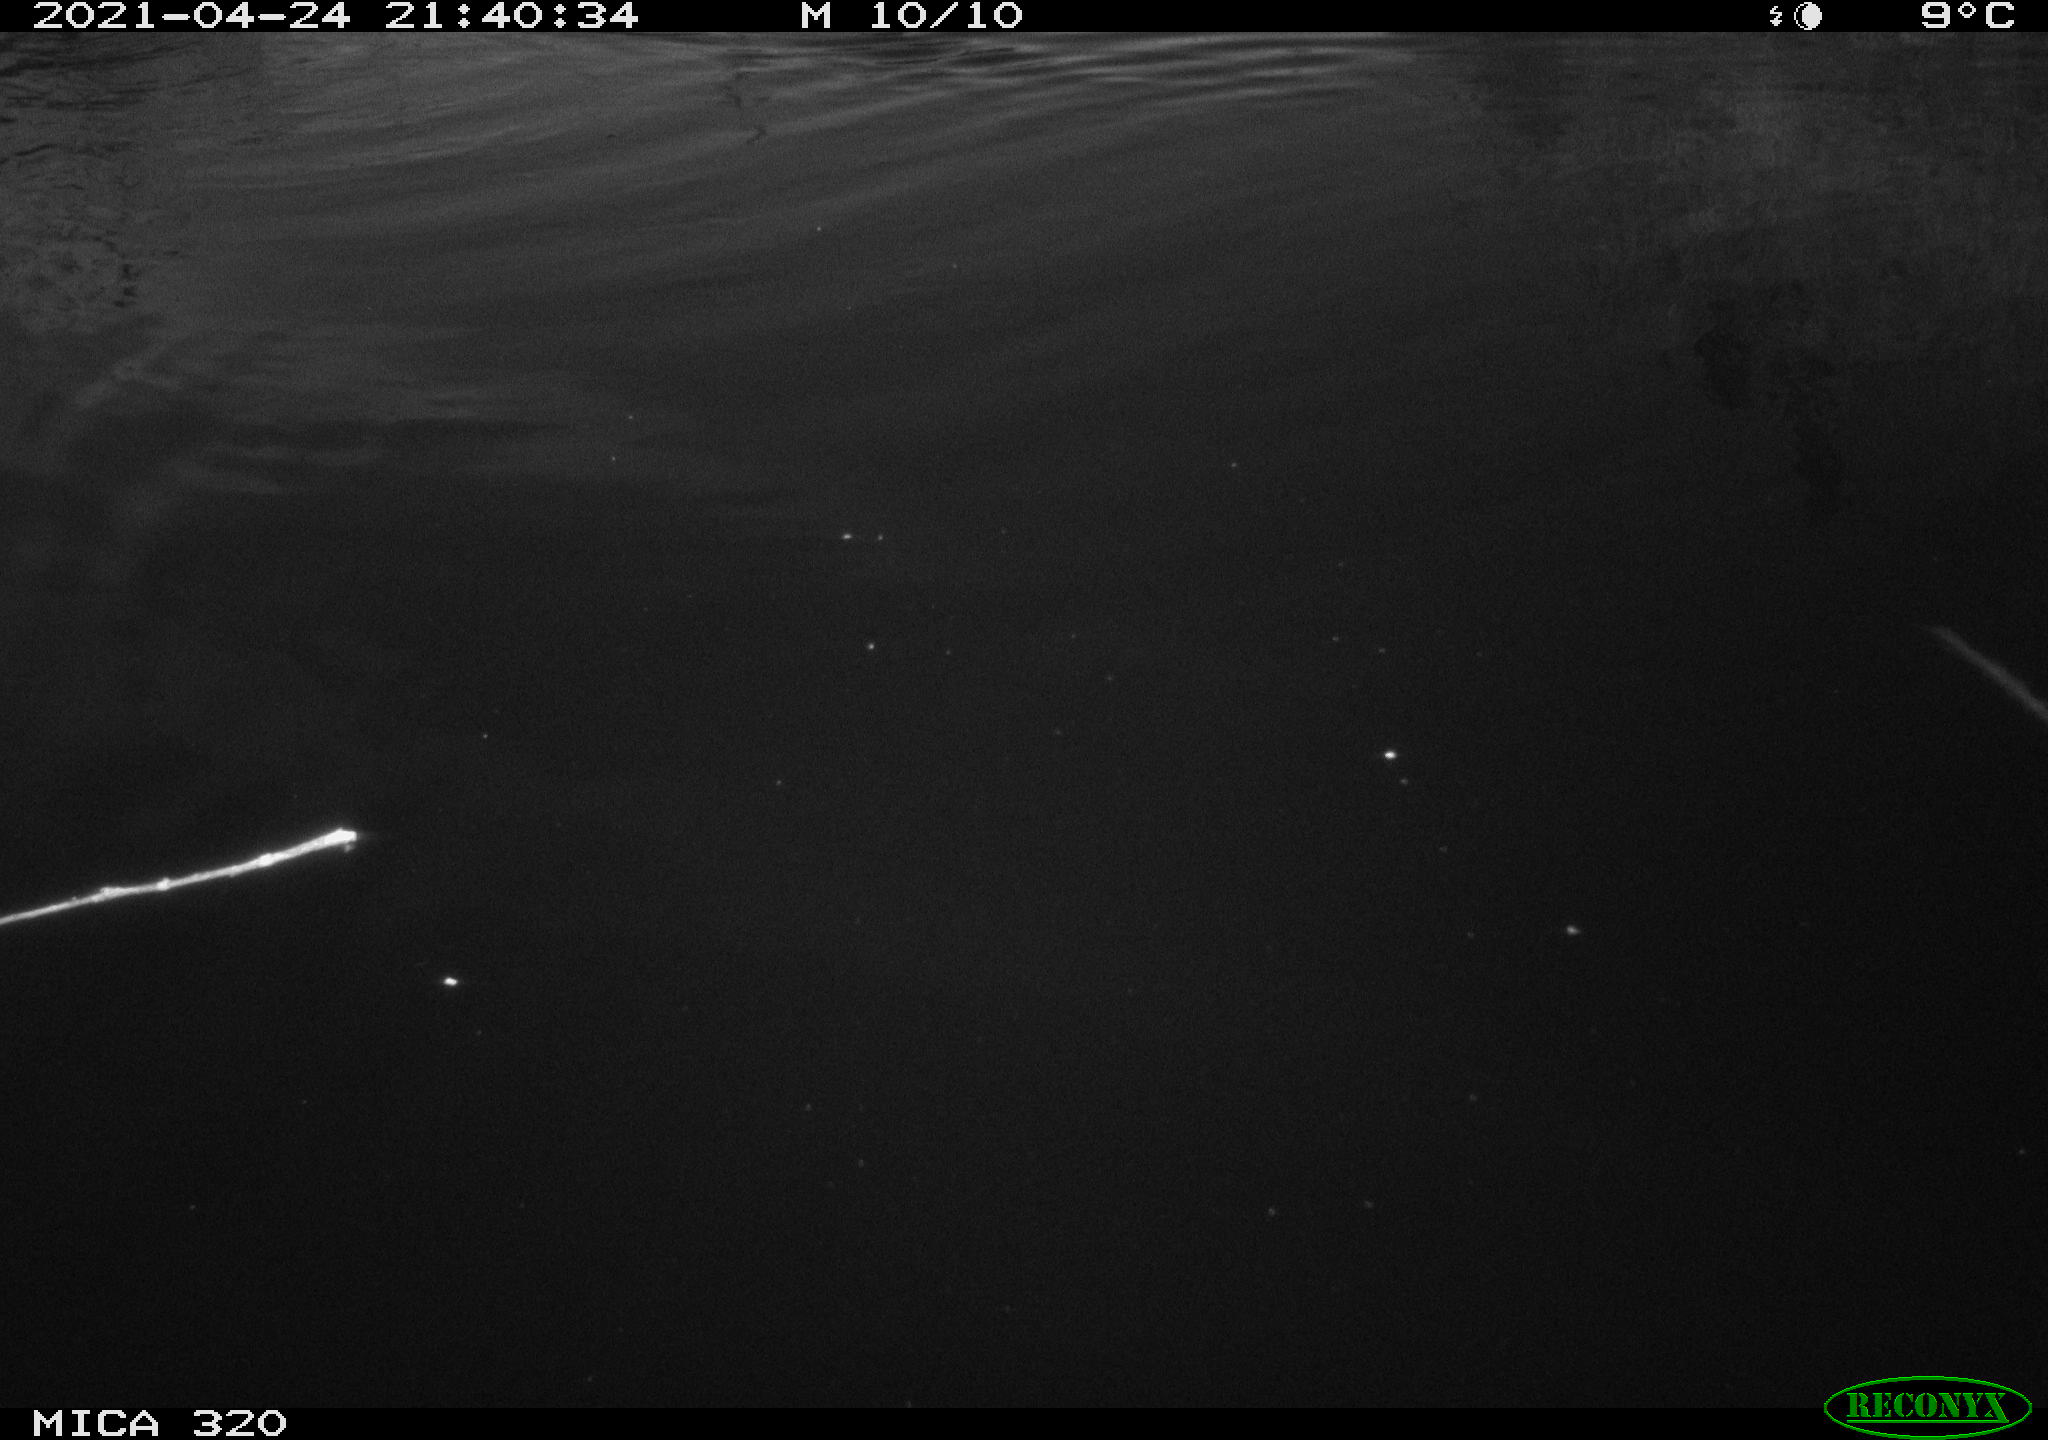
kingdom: Animalia
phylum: Chordata
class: Aves
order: Anseriformes
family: Anatidae
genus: Anas
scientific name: Anas platyrhynchos
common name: Mallard
